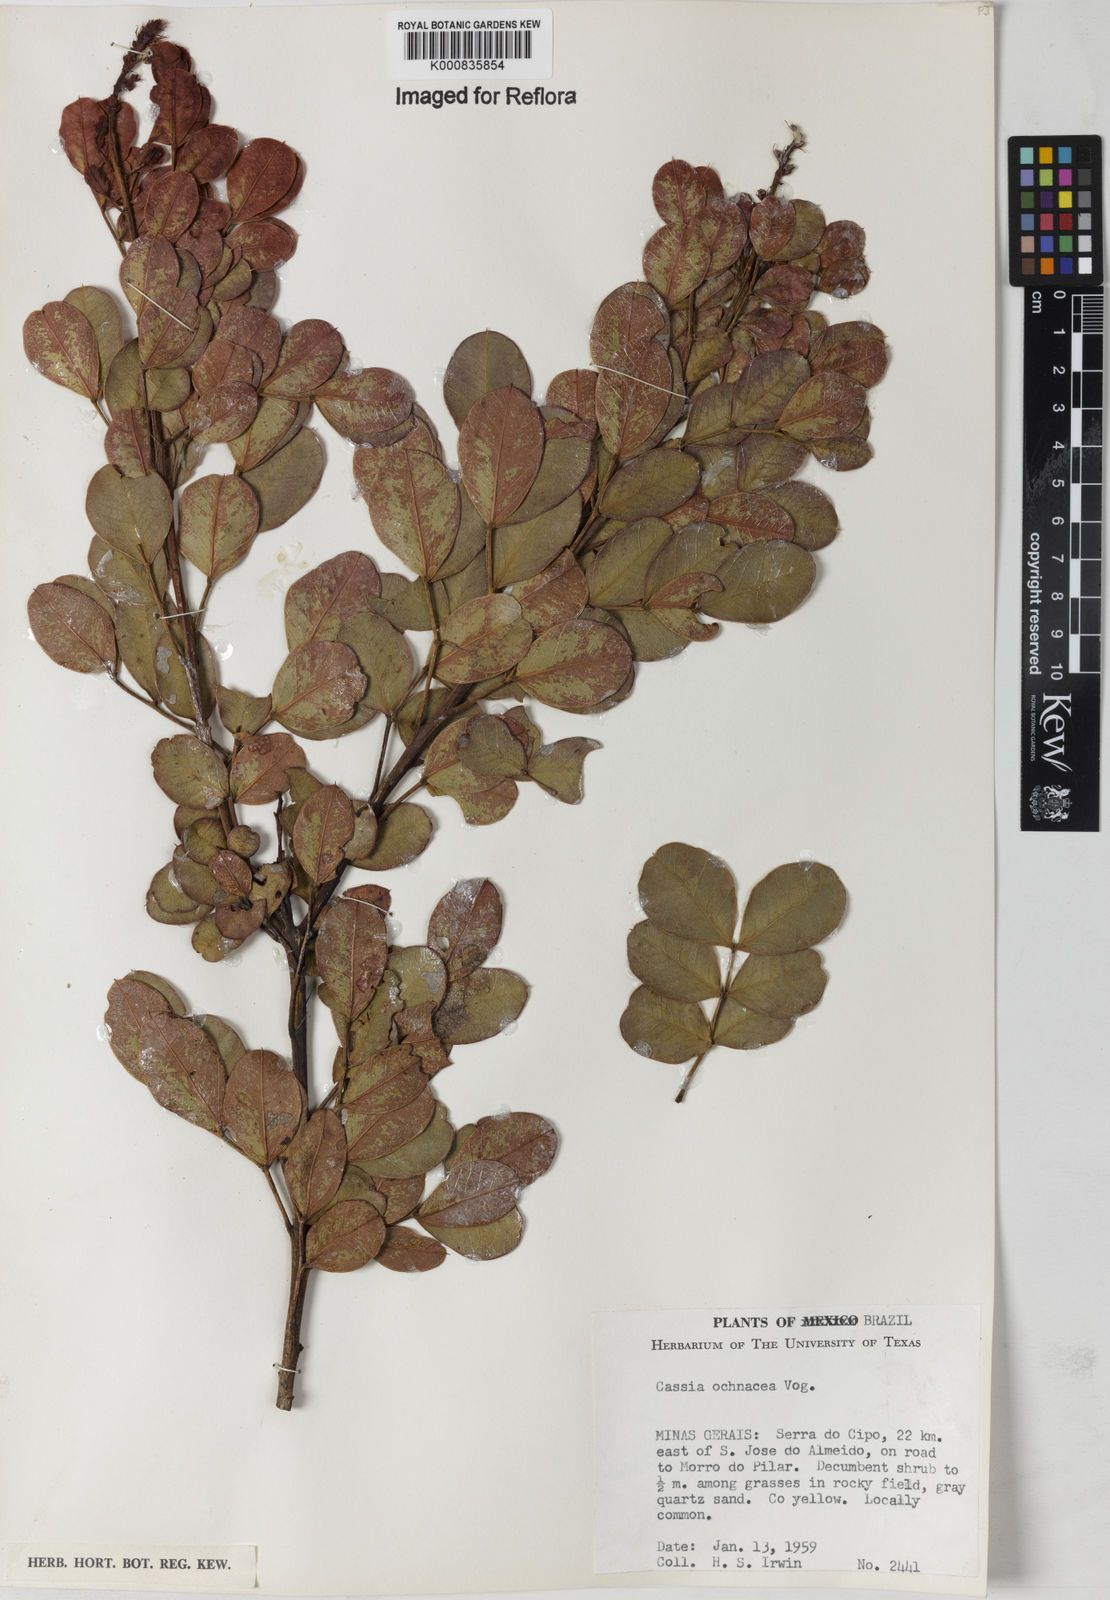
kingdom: Plantae
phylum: Tracheophyta
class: Magnoliopsida
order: Fabales
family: Fabaceae
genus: Chamaecrista
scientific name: Chamaecrista ochnacea
